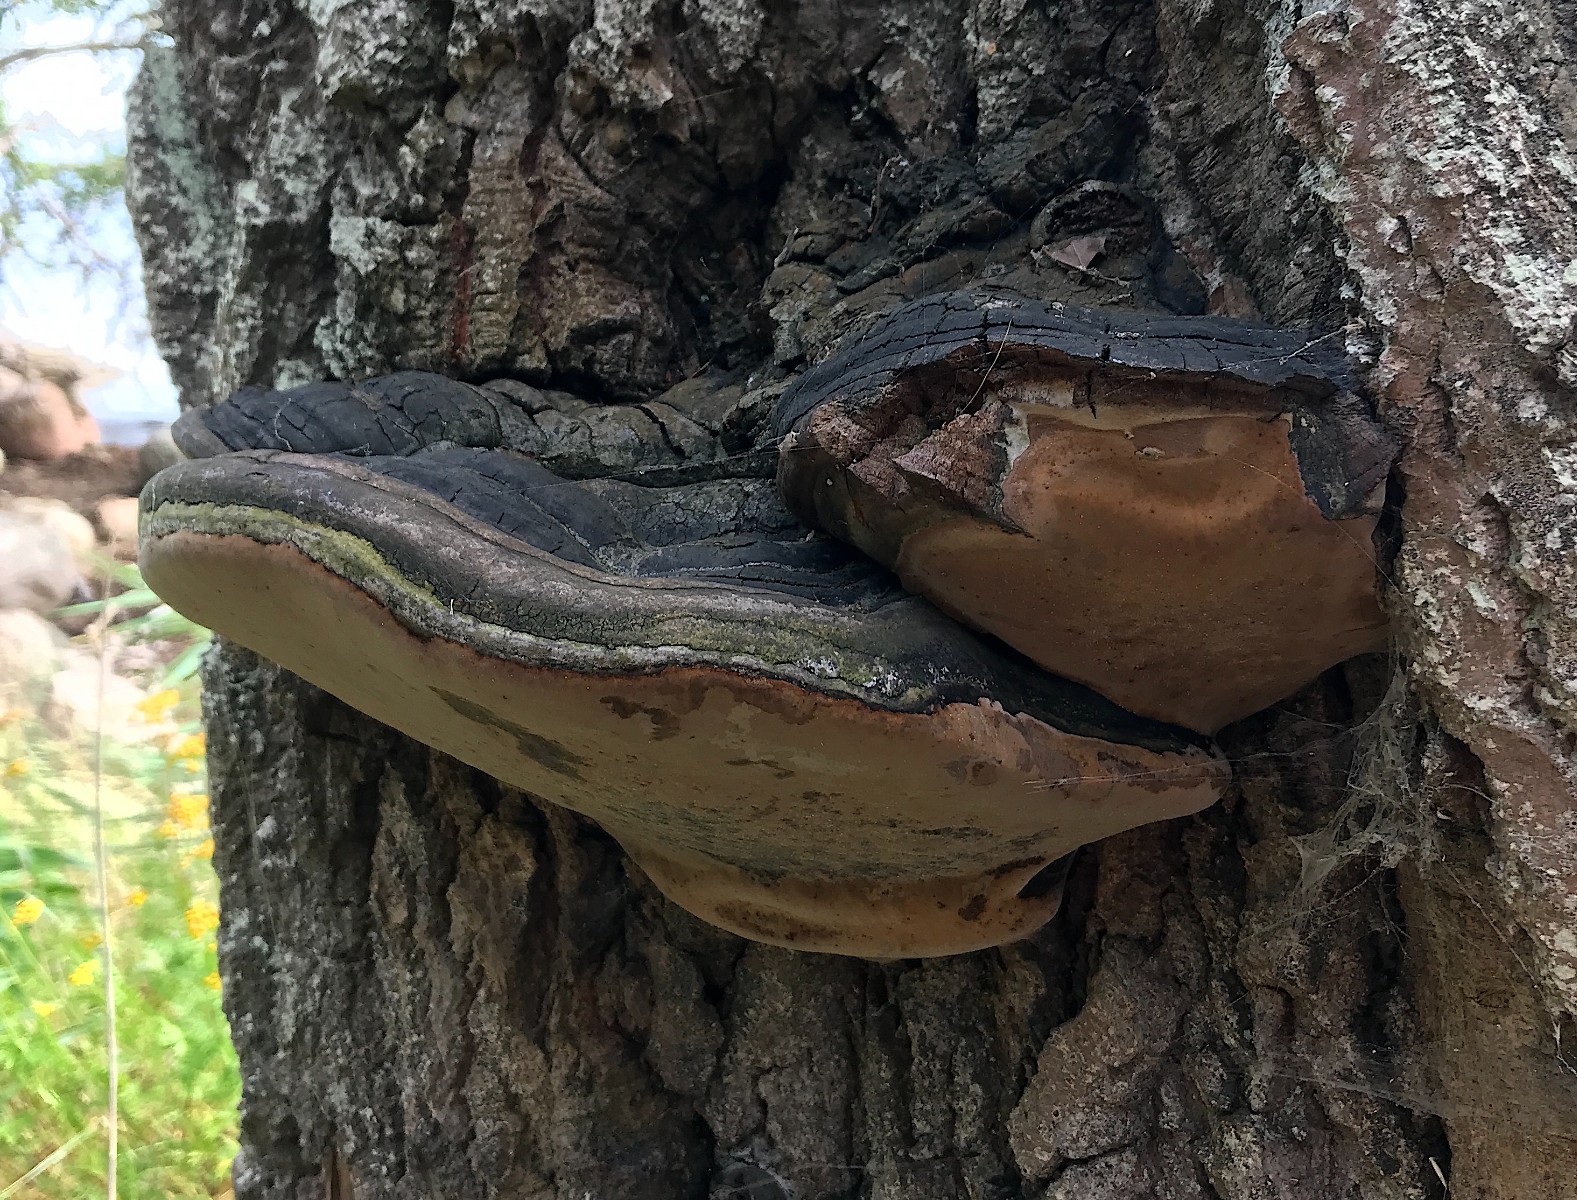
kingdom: Fungi
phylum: Basidiomycota
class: Agaricomycetes
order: Hymenochaetales
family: Hymenochaetaceae
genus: Phellinus
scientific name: Phellinus populicola
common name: poppel-ildporesvamp
